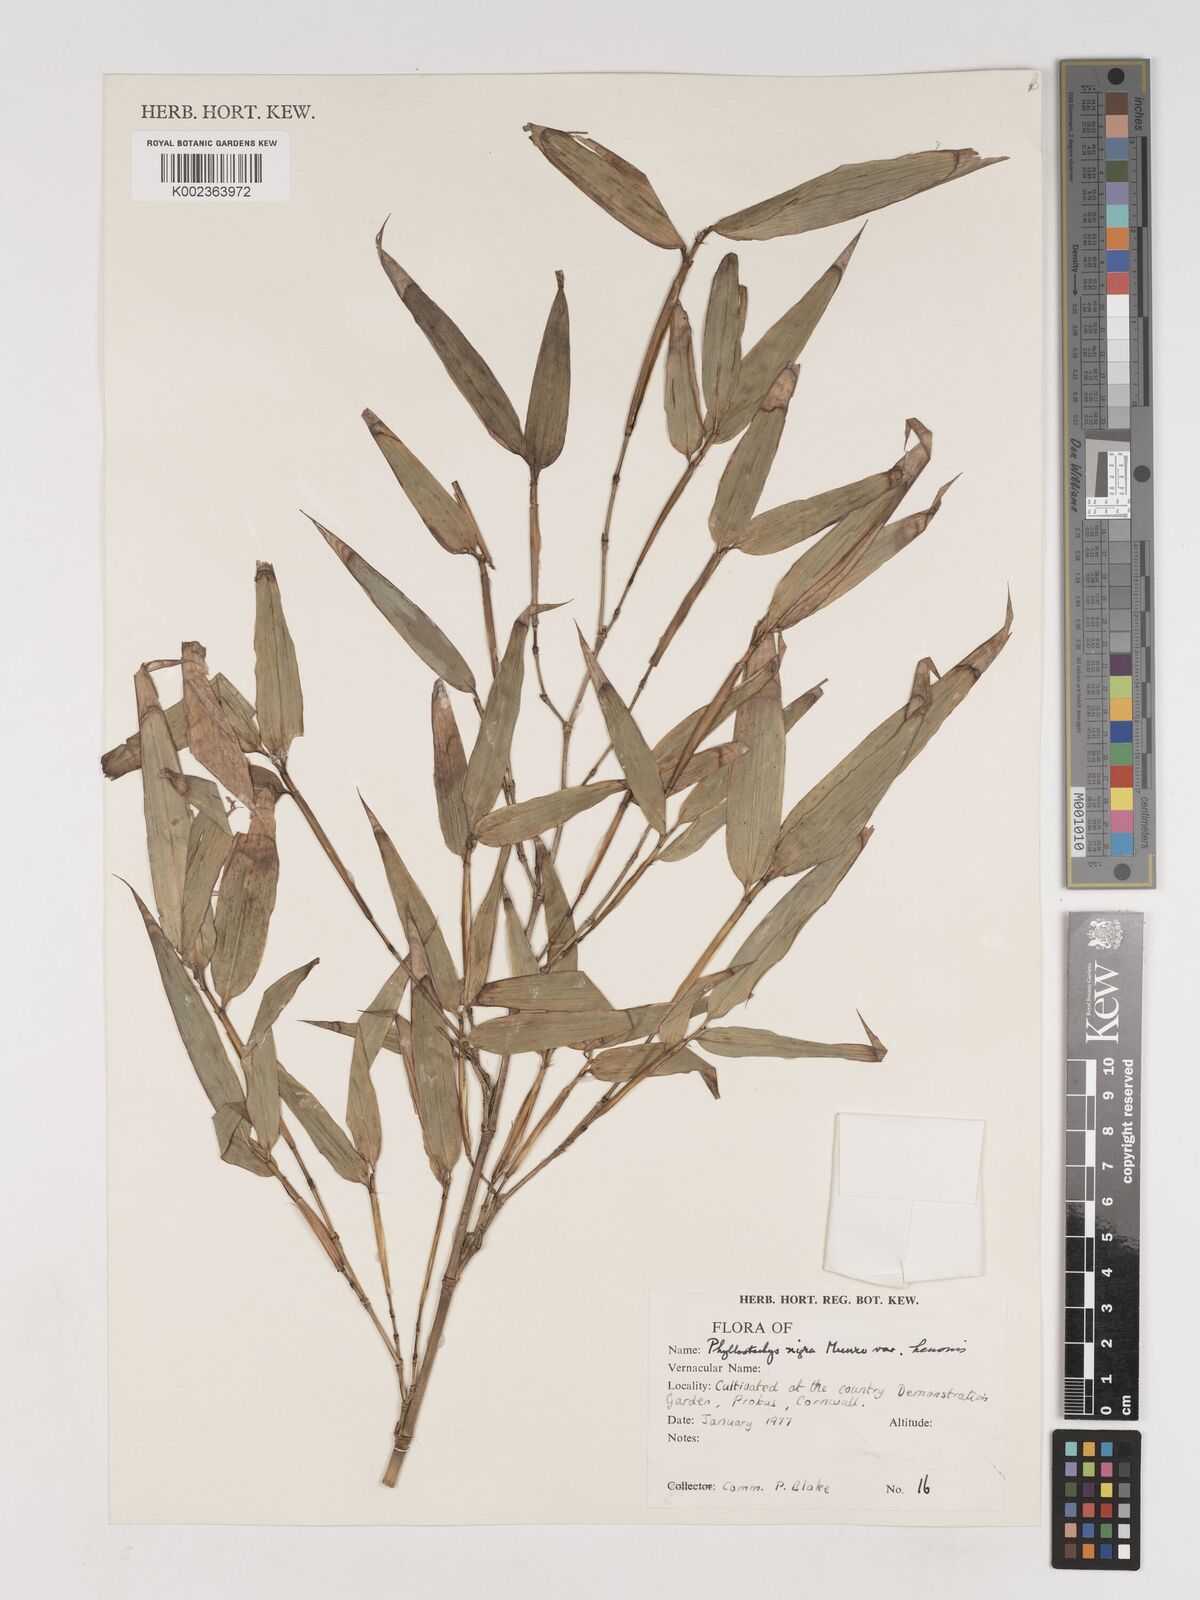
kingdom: Plantae
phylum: Tracheophyta
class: Liliopsida
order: Poales
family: Poaceae
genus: Phyllostachys
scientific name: Phyllostachys nigra
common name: Black bamboo
